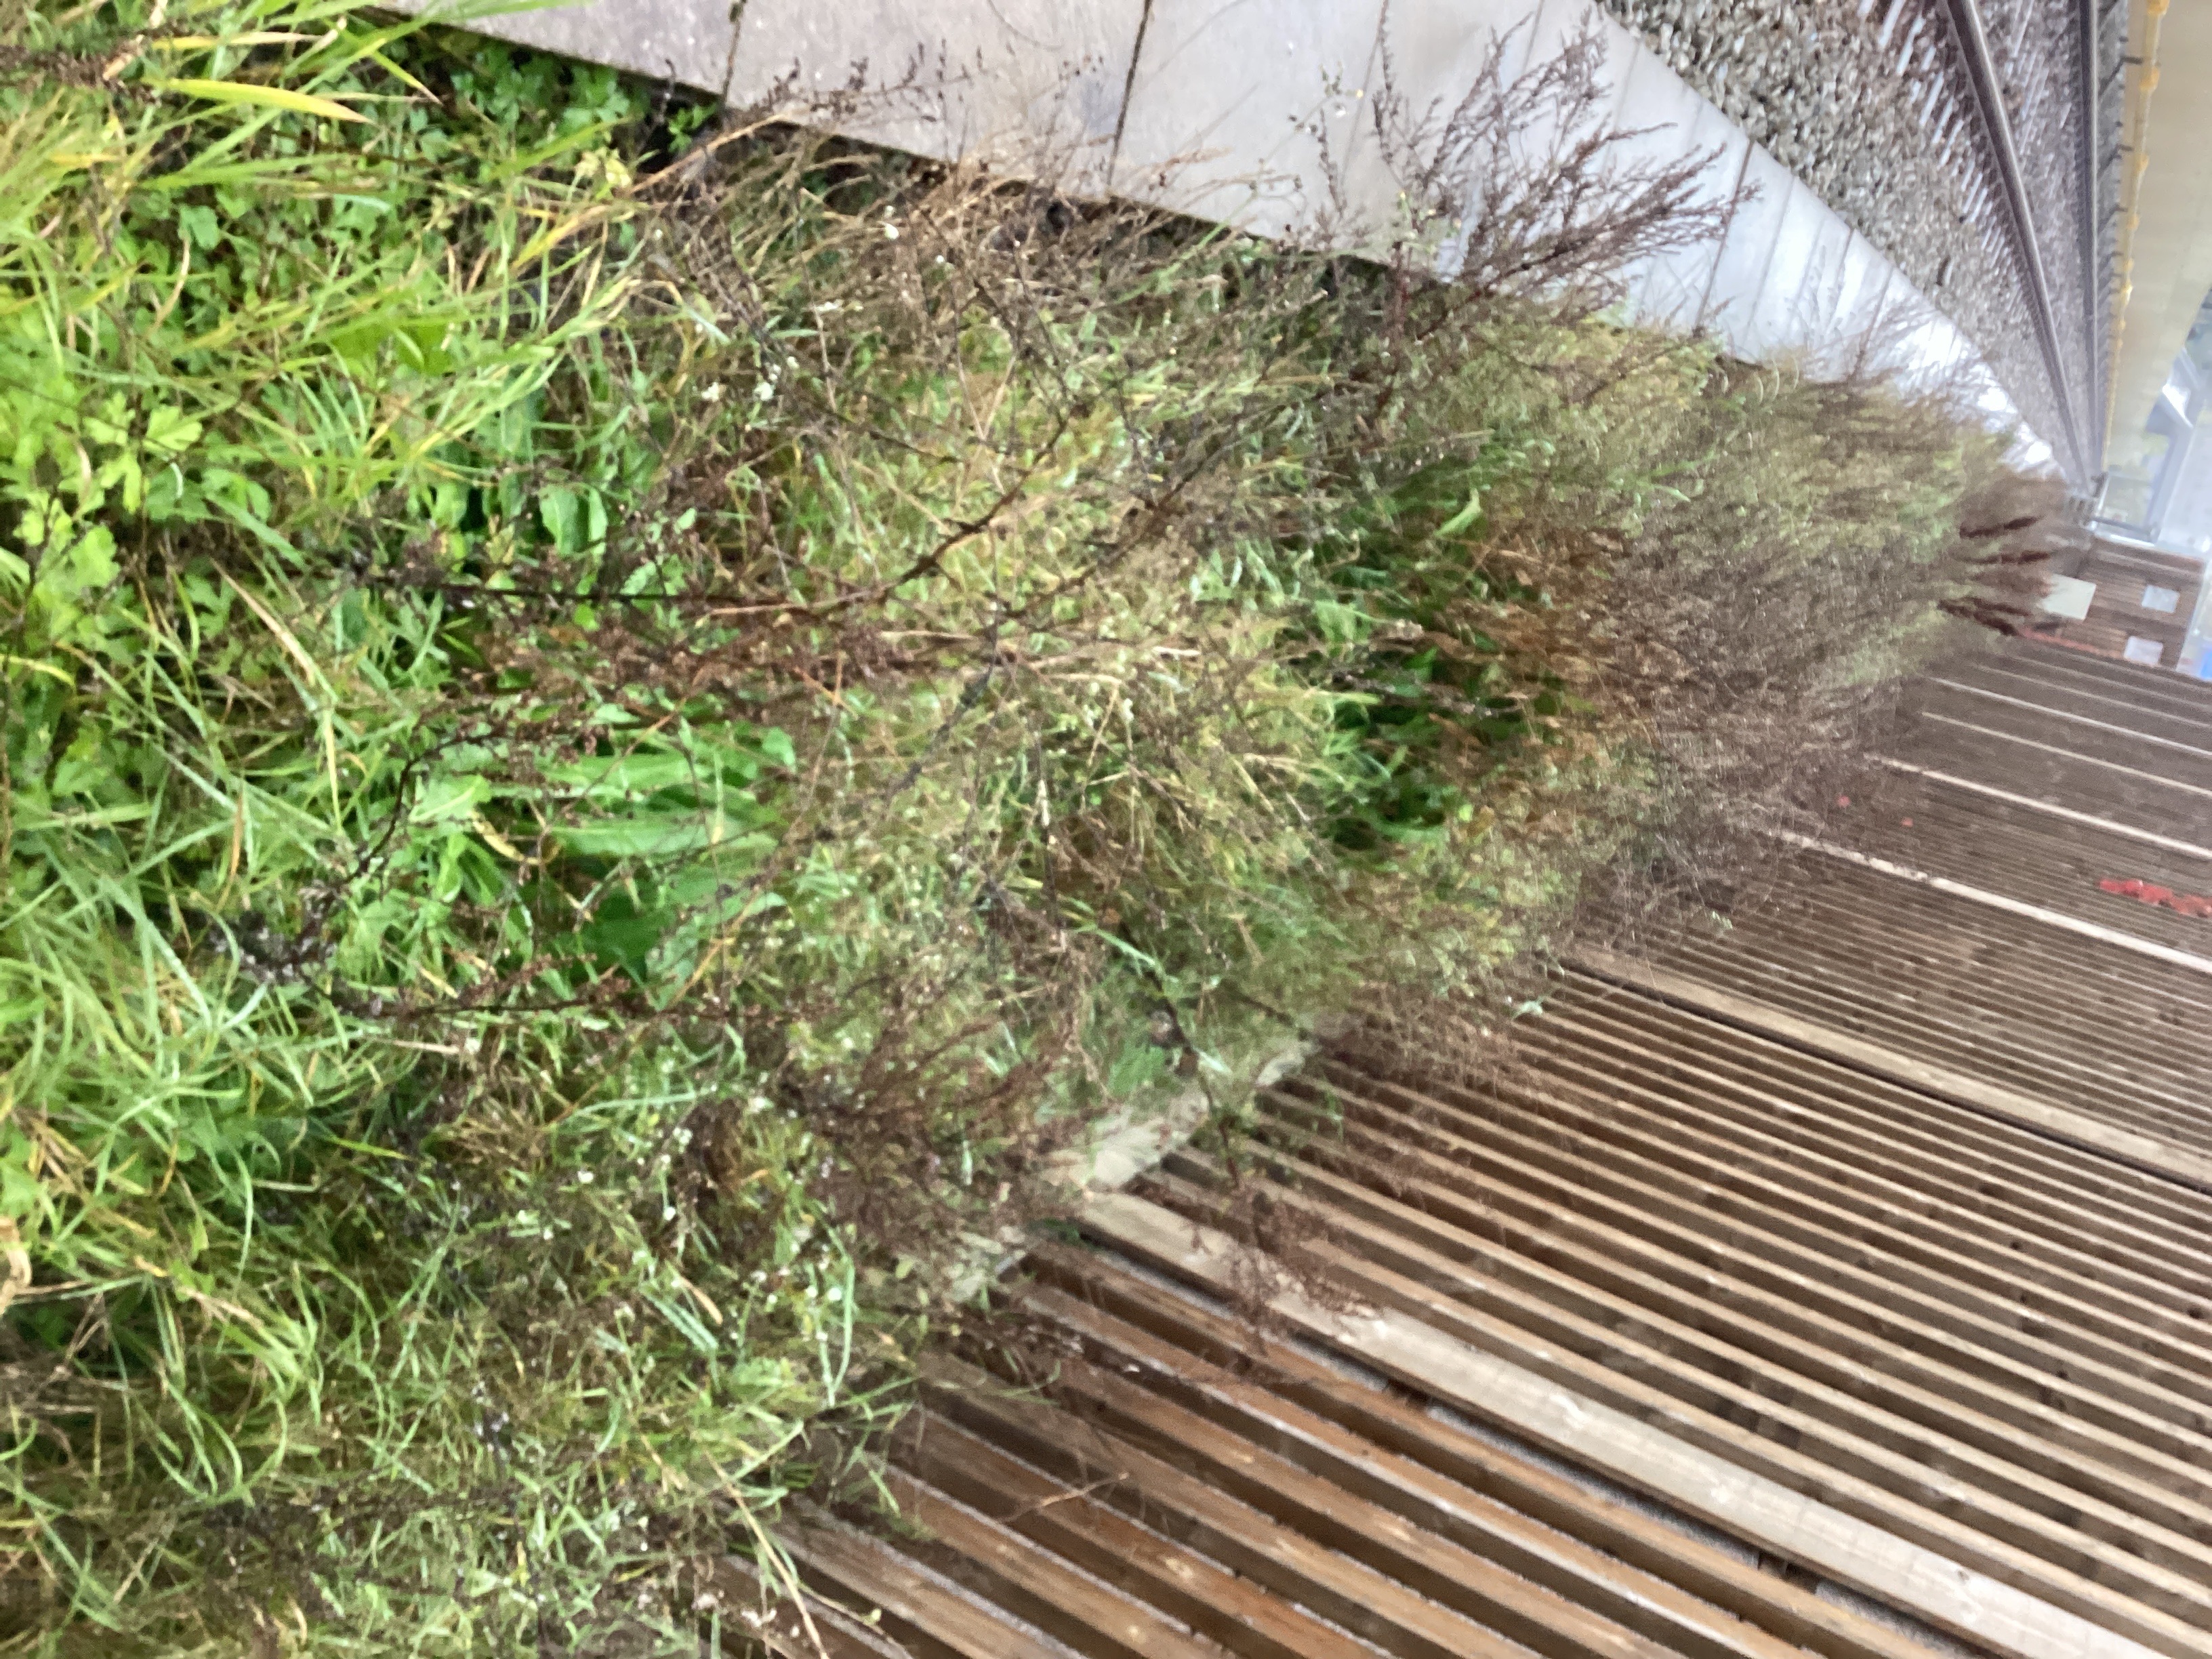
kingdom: Plantae
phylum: Tracheophyta
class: Magnoliopsida
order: Brassicales
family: Brassicaceae
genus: Bunias
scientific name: Bunias orientalis
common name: russekål
